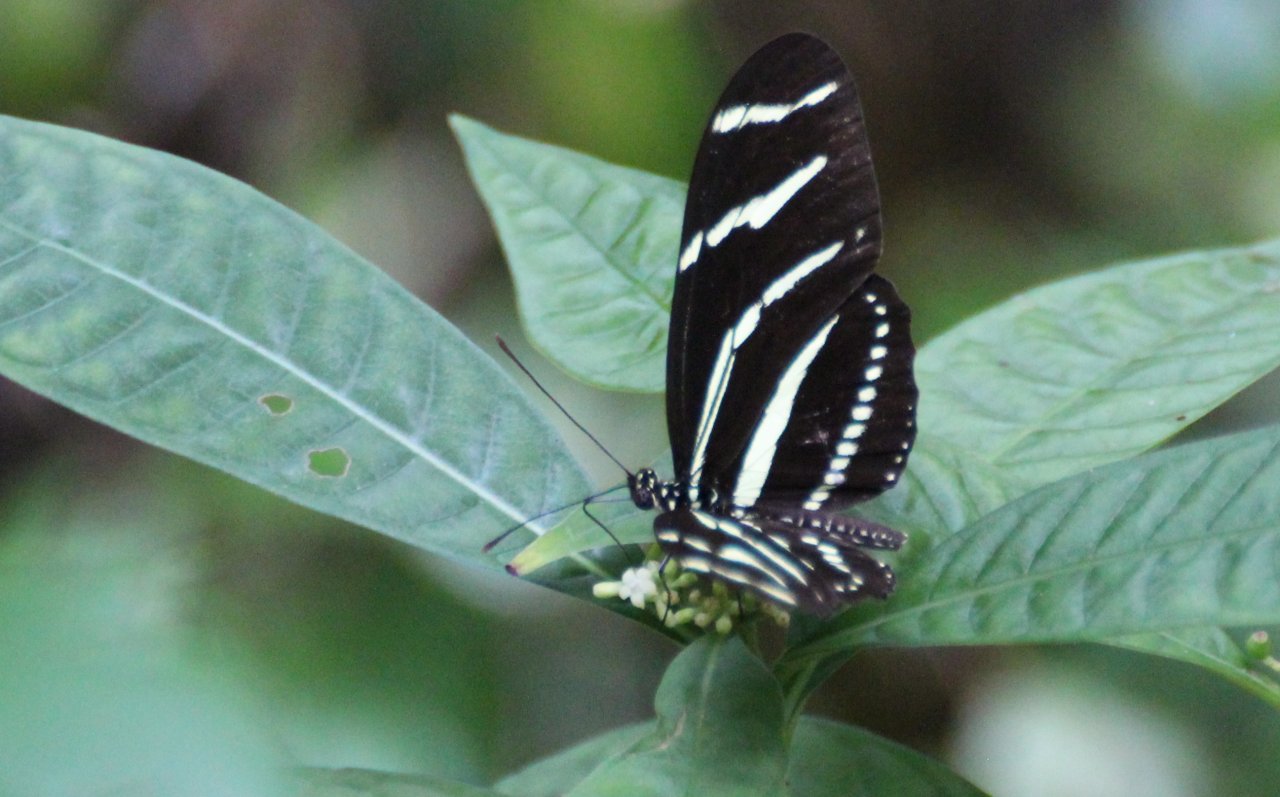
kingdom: Animalia
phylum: Arthropoda
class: Insecta
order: Lepidoptera
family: Nymphalidae
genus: Heliconius
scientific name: Heliconius charithonia
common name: Zebra Longwing
